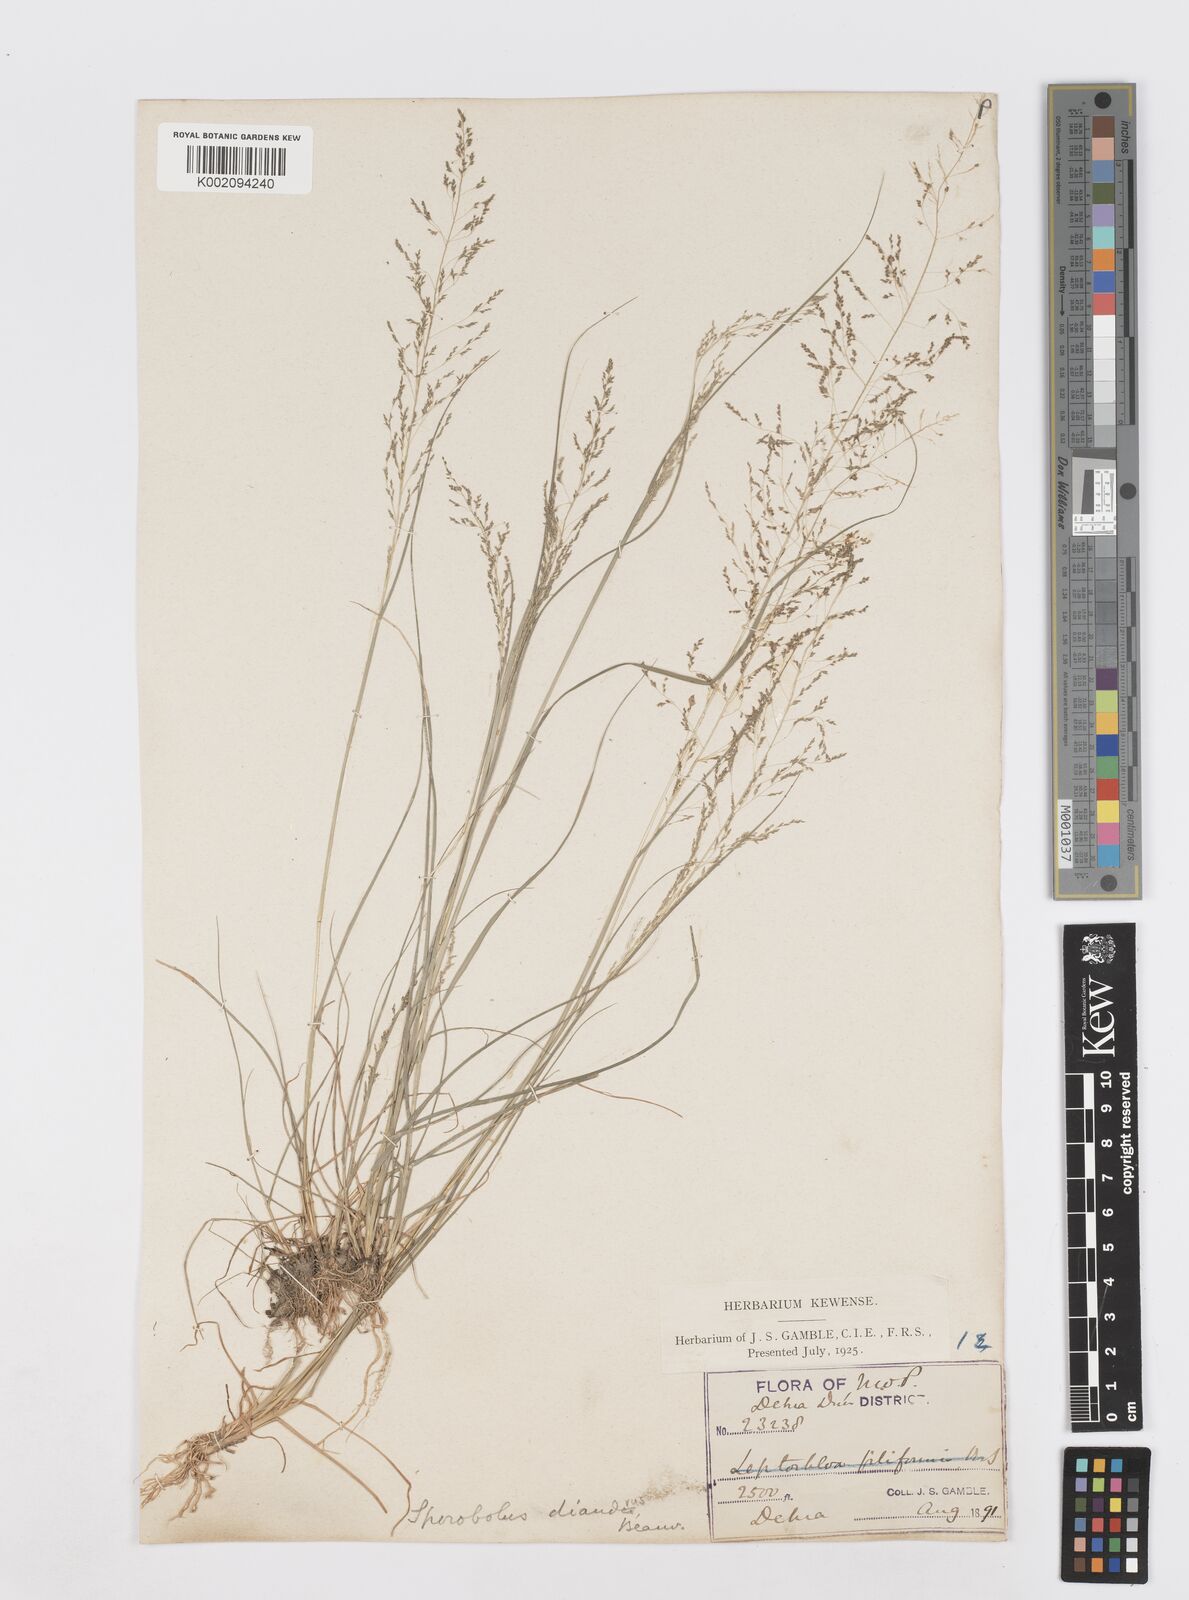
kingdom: Plantae
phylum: Tracheophyta
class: Liliopsida
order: Poales
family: Poaceae
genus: Sporobolus
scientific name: Sporobolus
